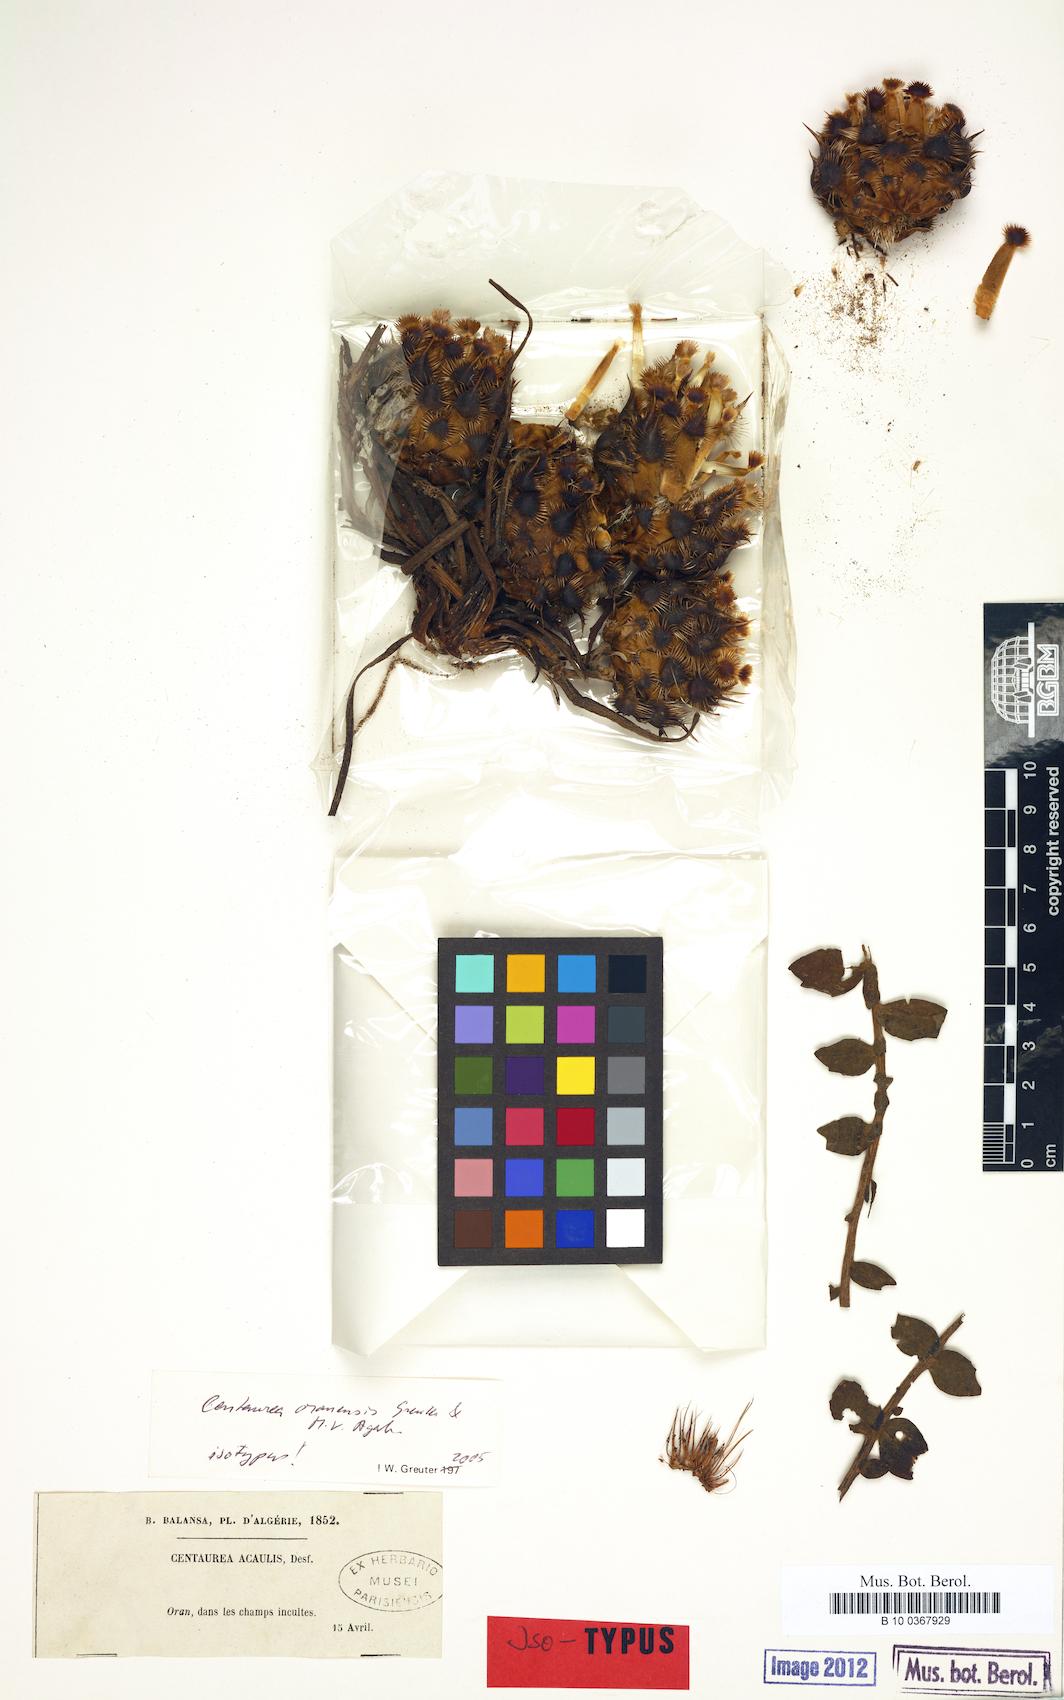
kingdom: Plantae
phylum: Tracheophyta
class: Magnoliopsida
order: Asterales
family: Asteraceae
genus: Centaurea
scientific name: Centaurea oranensis
